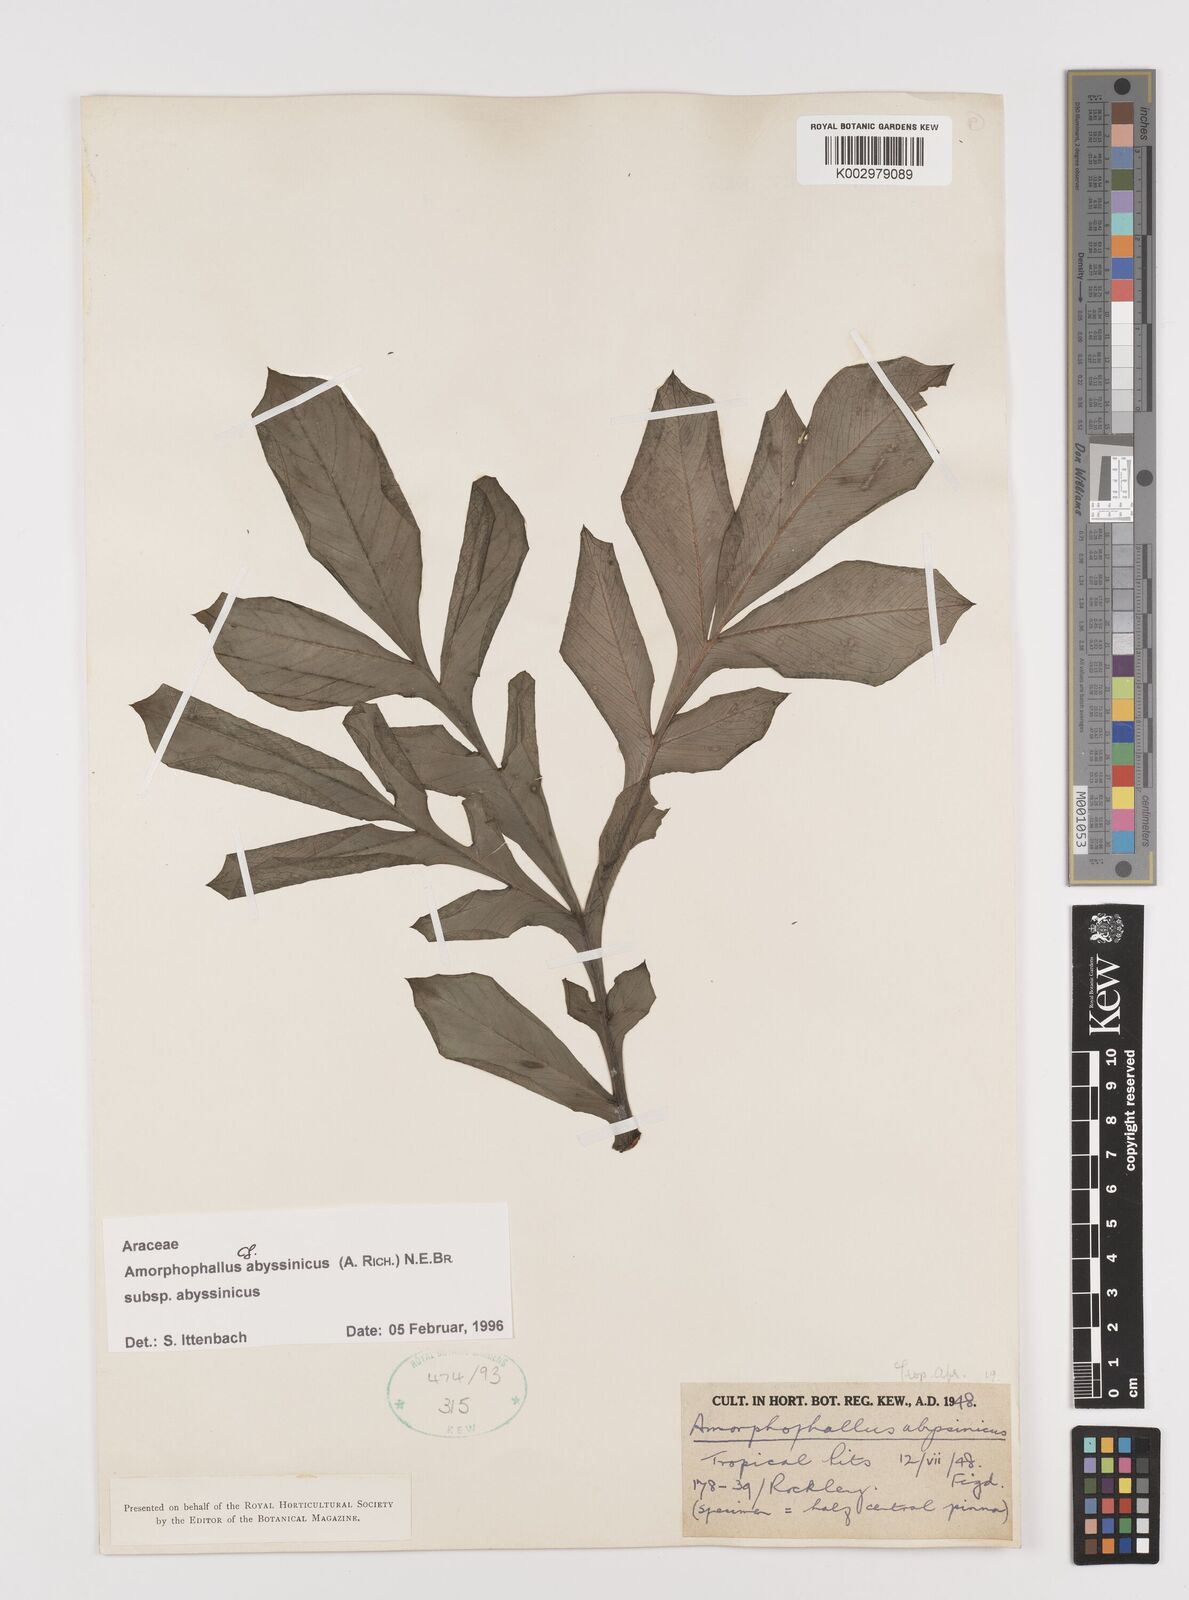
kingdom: Plantae
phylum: Tracheophyta
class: Liliopsida
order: Alismatales
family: Araceae
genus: Amorphophallus
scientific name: Amorphophallus abyssinicus
